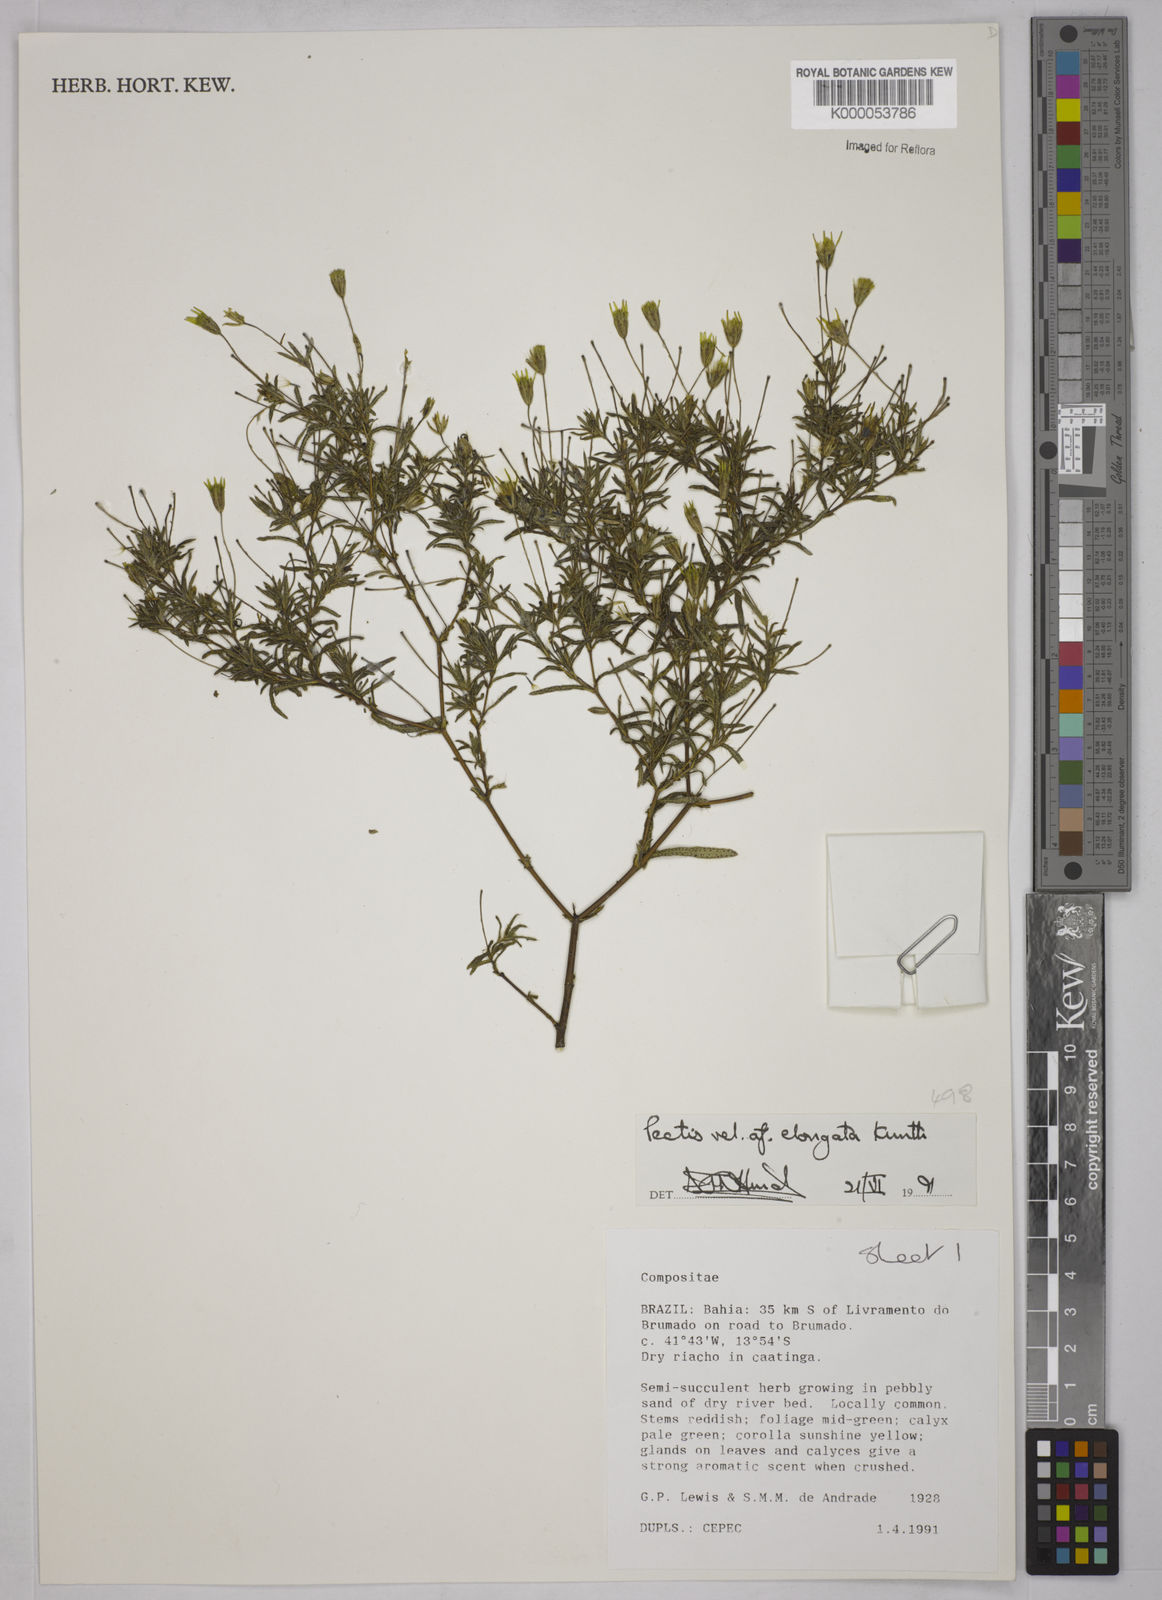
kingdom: Plantae
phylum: Tracheophyta
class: Magnoliopsida
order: Asterales
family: Asteraceae
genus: Pectis
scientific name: Pectis elongata
